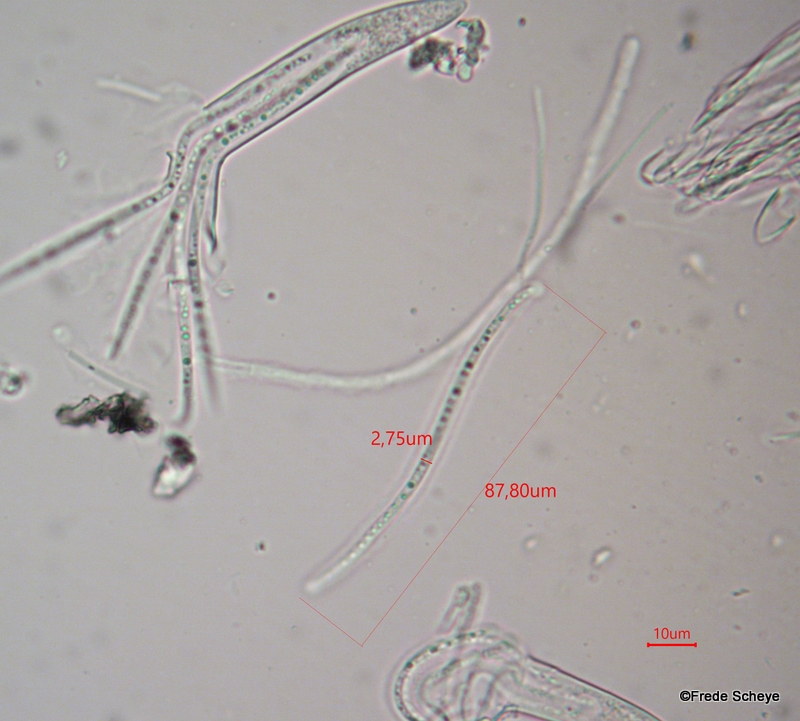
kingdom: Fungi
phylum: Ascomycota
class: Leotiomycetes
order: Rhytismatales
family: Rhytismataceae
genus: Lophodermium
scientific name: Lophodermium pinastri
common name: fyrre-fureplet
